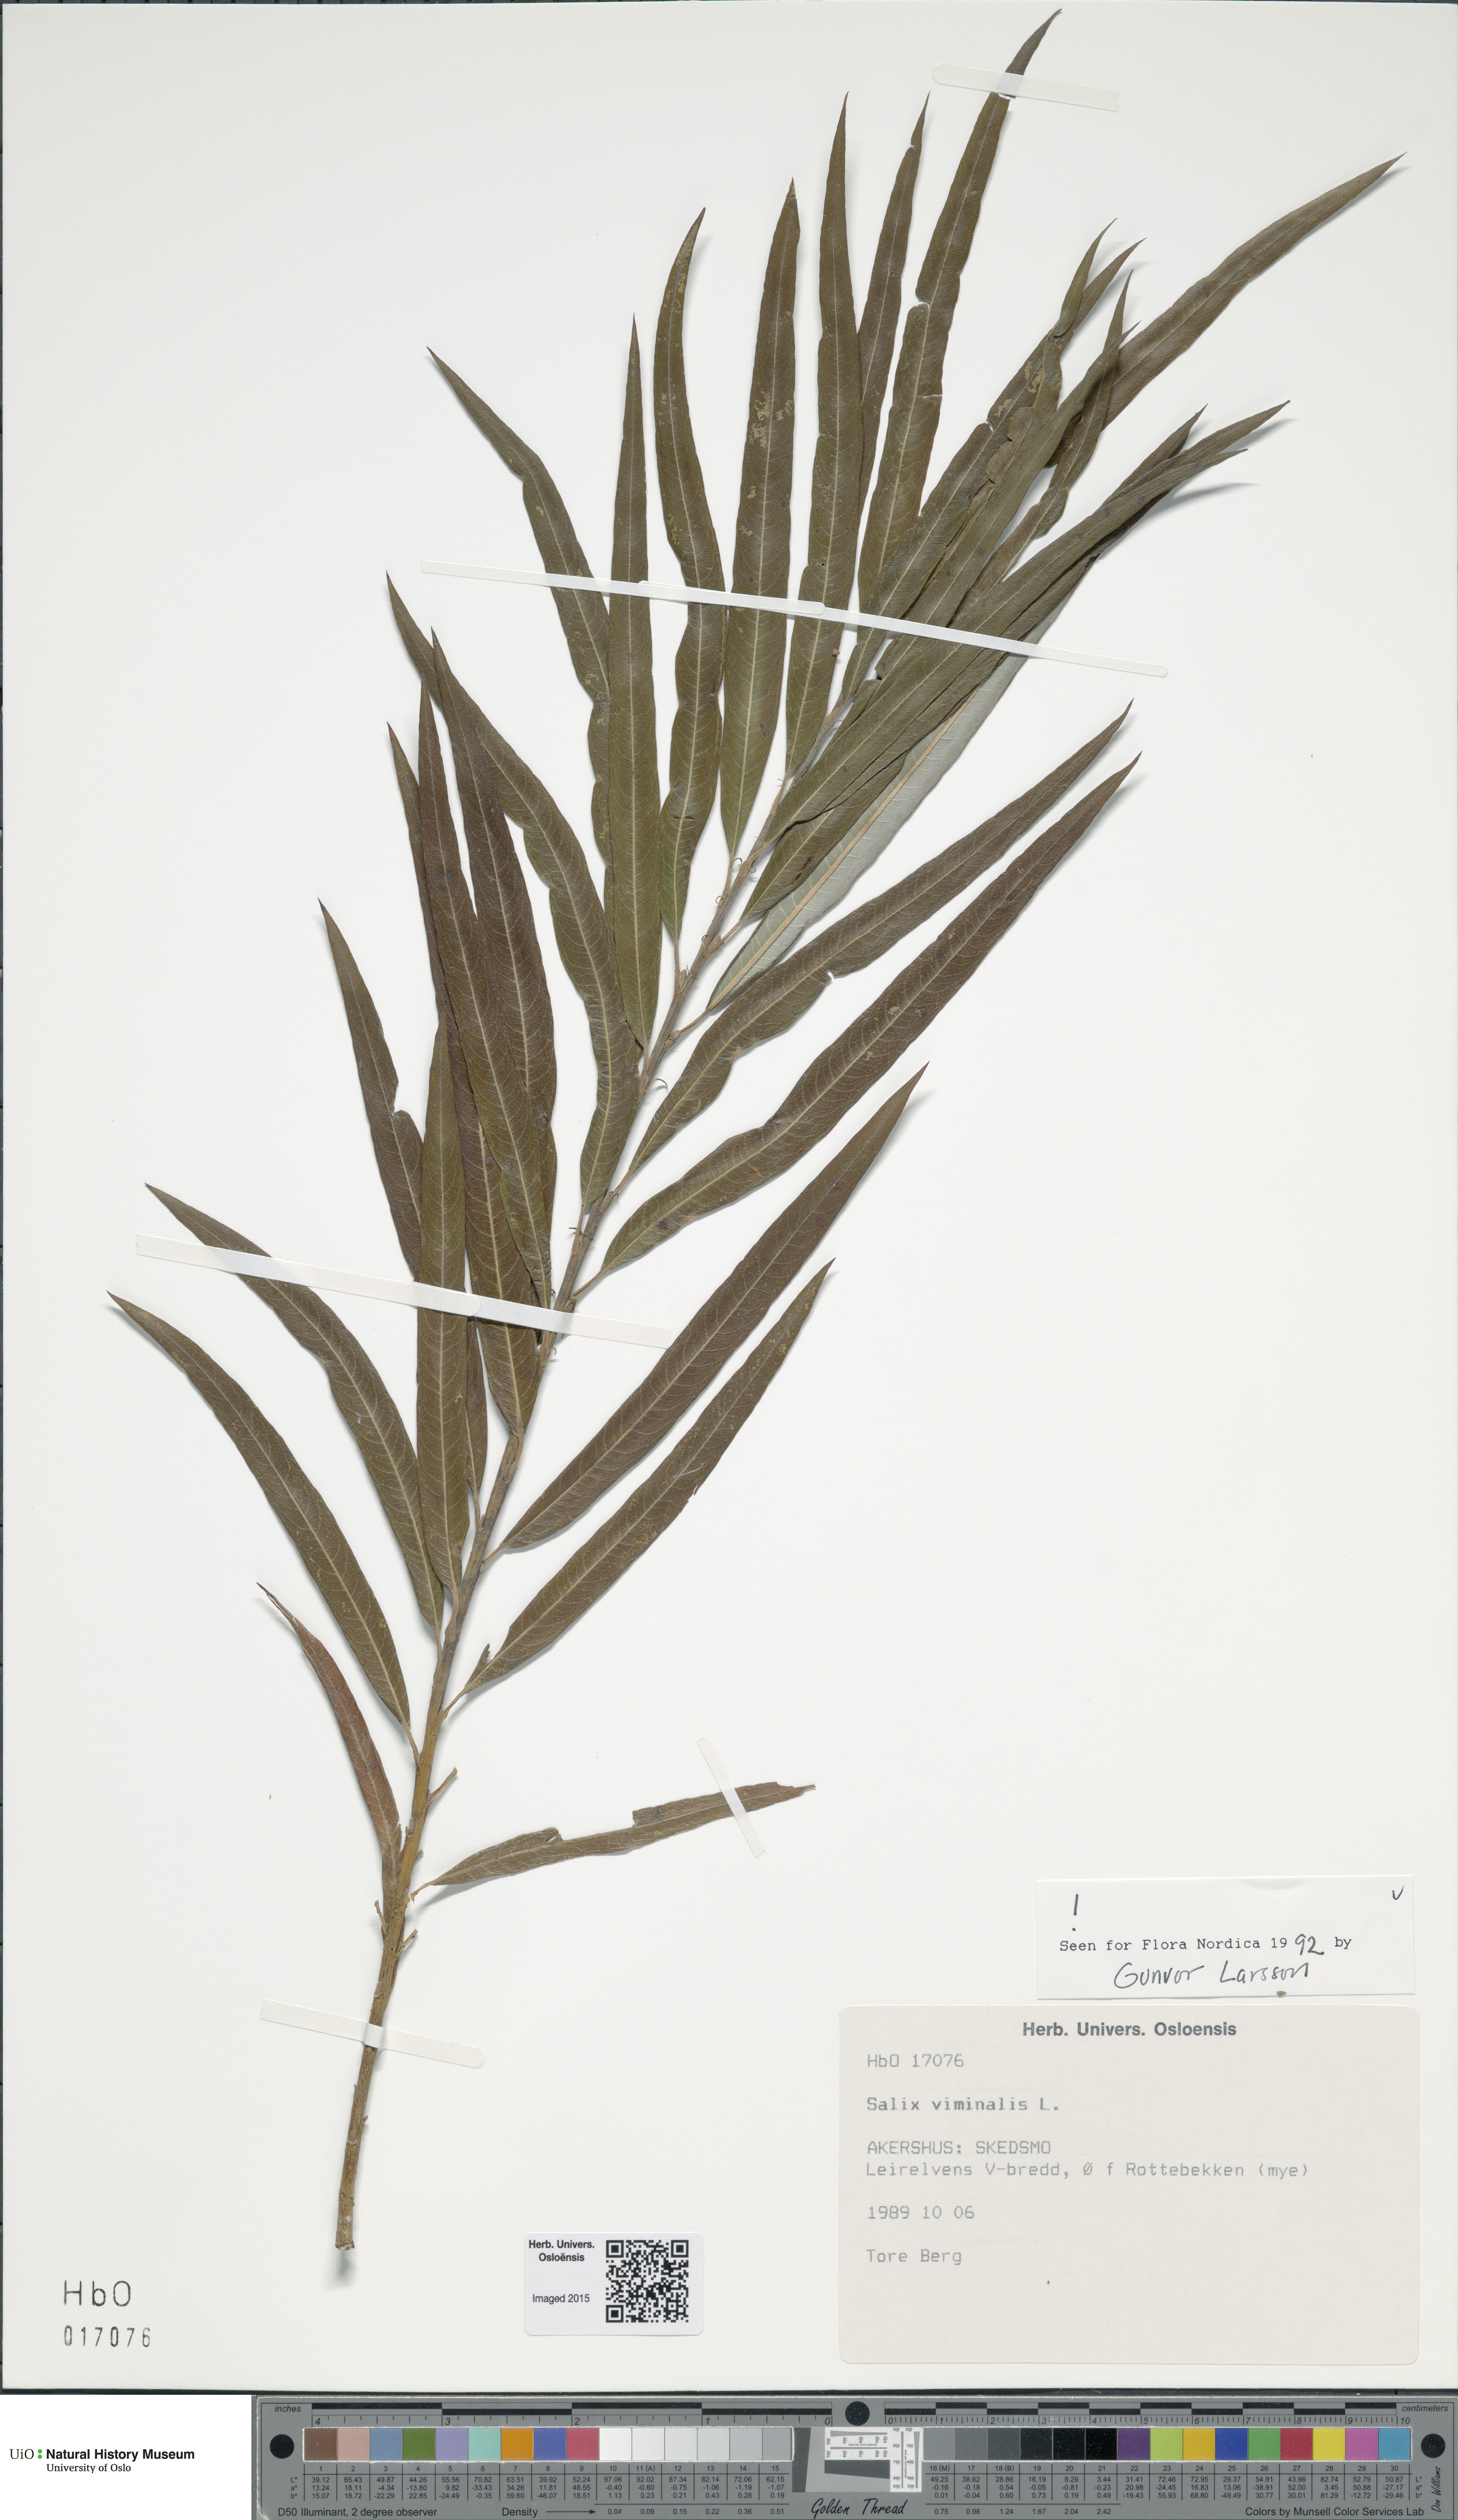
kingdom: Plantae
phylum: Tracheophyta
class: Magnoliopsida
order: Malpighiales
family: Salicaceae
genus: Salix
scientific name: Salix viminalis
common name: Osier
